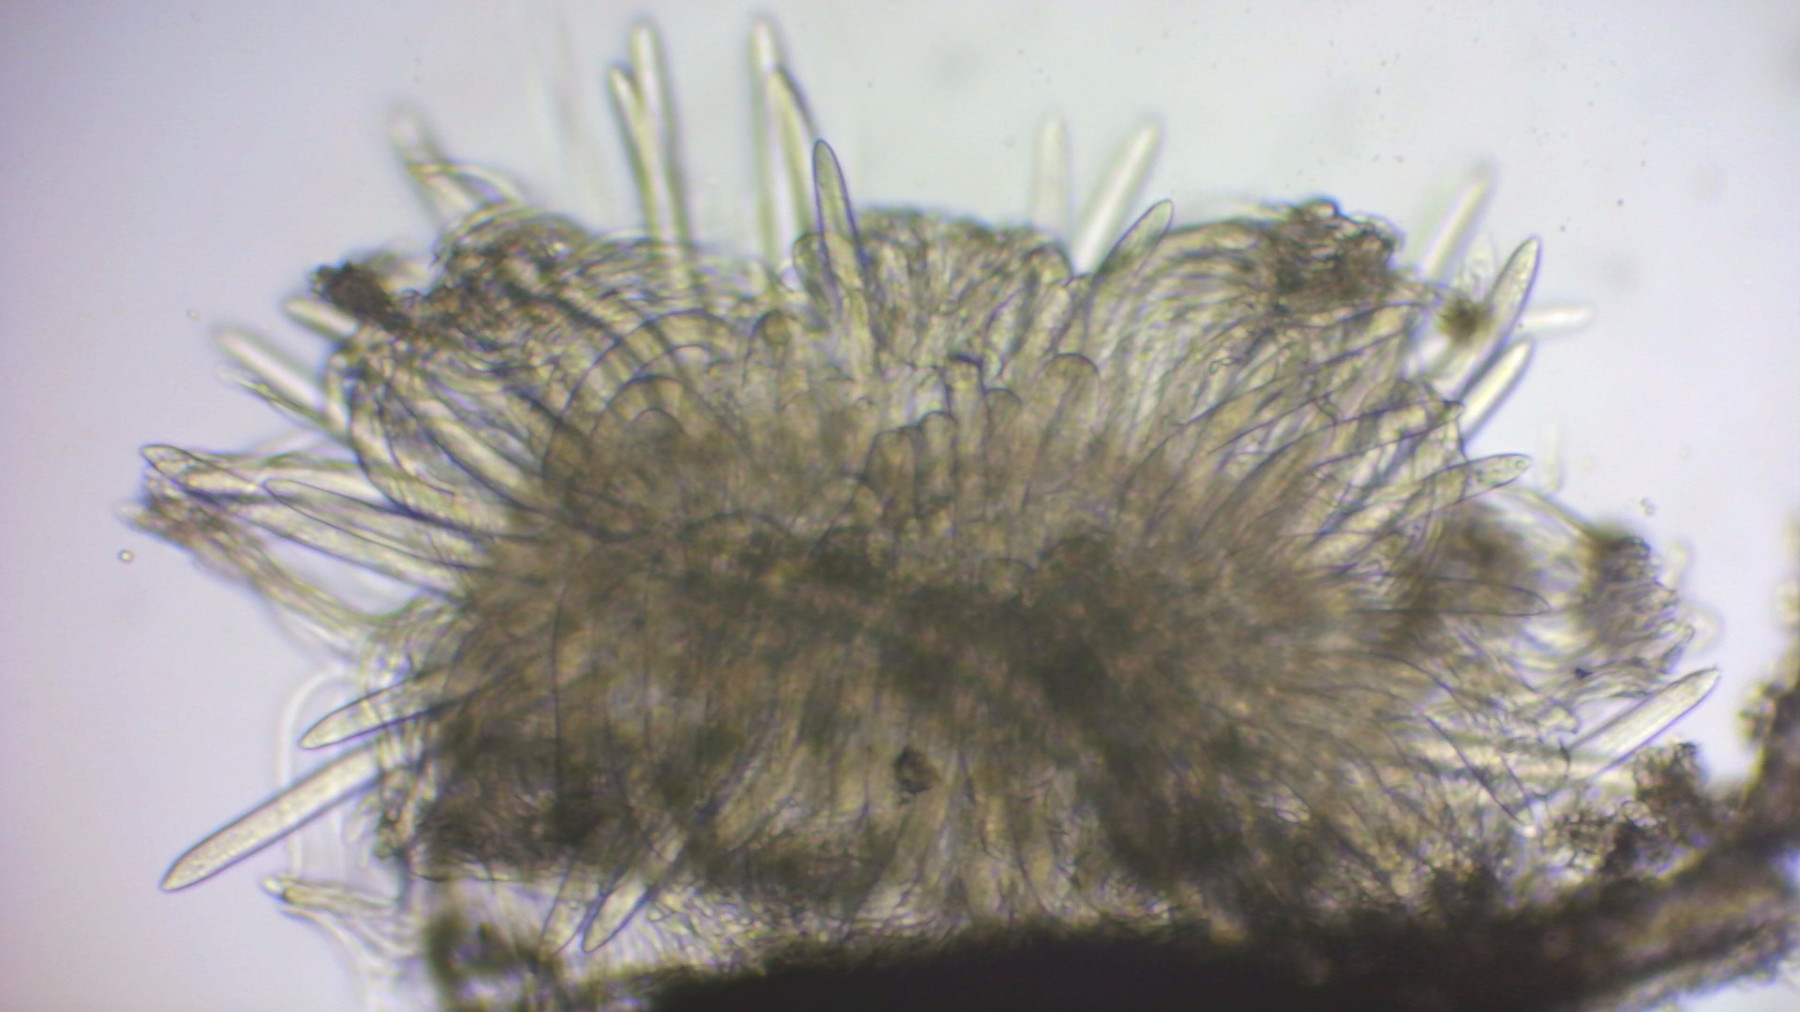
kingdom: Fungi
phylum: Ascomycota
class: Leotiomycetes
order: Rhytismatales
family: Rhytismataceae
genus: Lophodermium
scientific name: Lophodermium pinastri
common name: fyrre-fureplet
